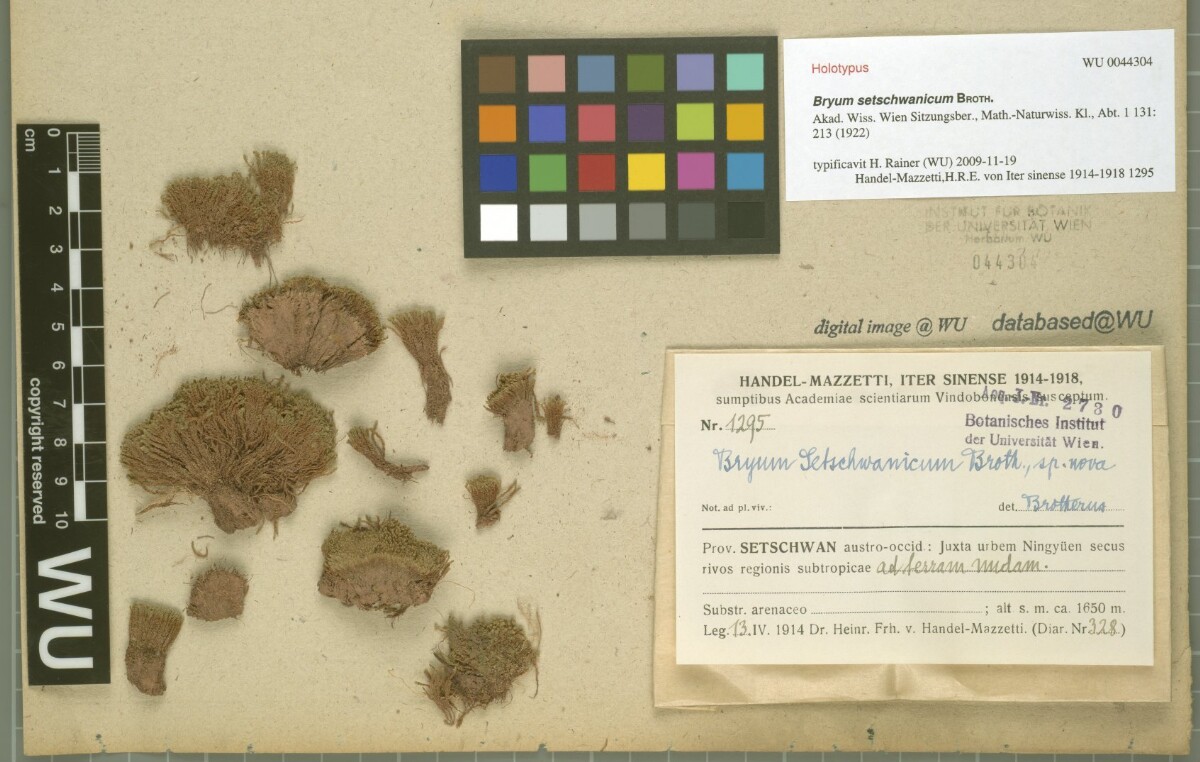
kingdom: Plantae
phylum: Bryophyta
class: Bryopsida
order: Bryales
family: Bryaceae
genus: Plagiobryoides
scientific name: Plagiobryoides cellularis
